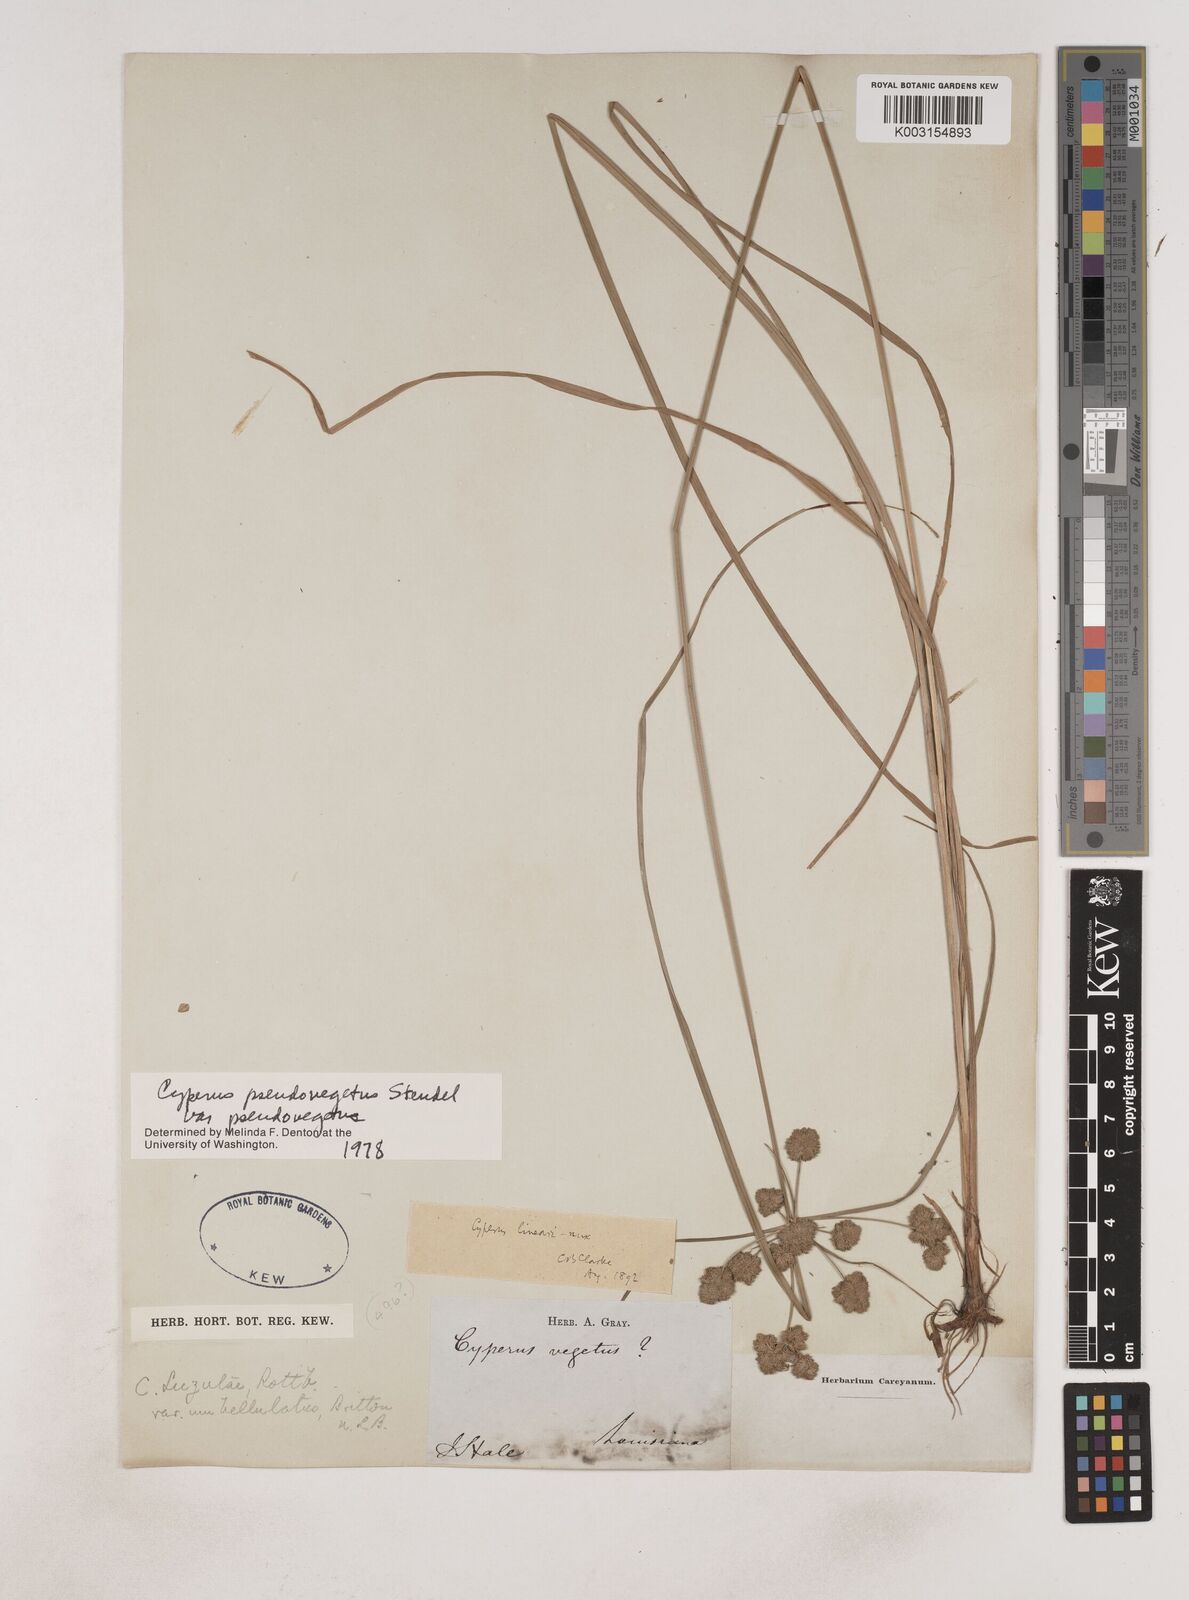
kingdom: Plantae
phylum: Tracheophyta
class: Liliopsida
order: Poales
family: Cyperaceae
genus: Cyperus
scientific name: Cyperus pseudovegetus
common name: Marsh flat sedge
